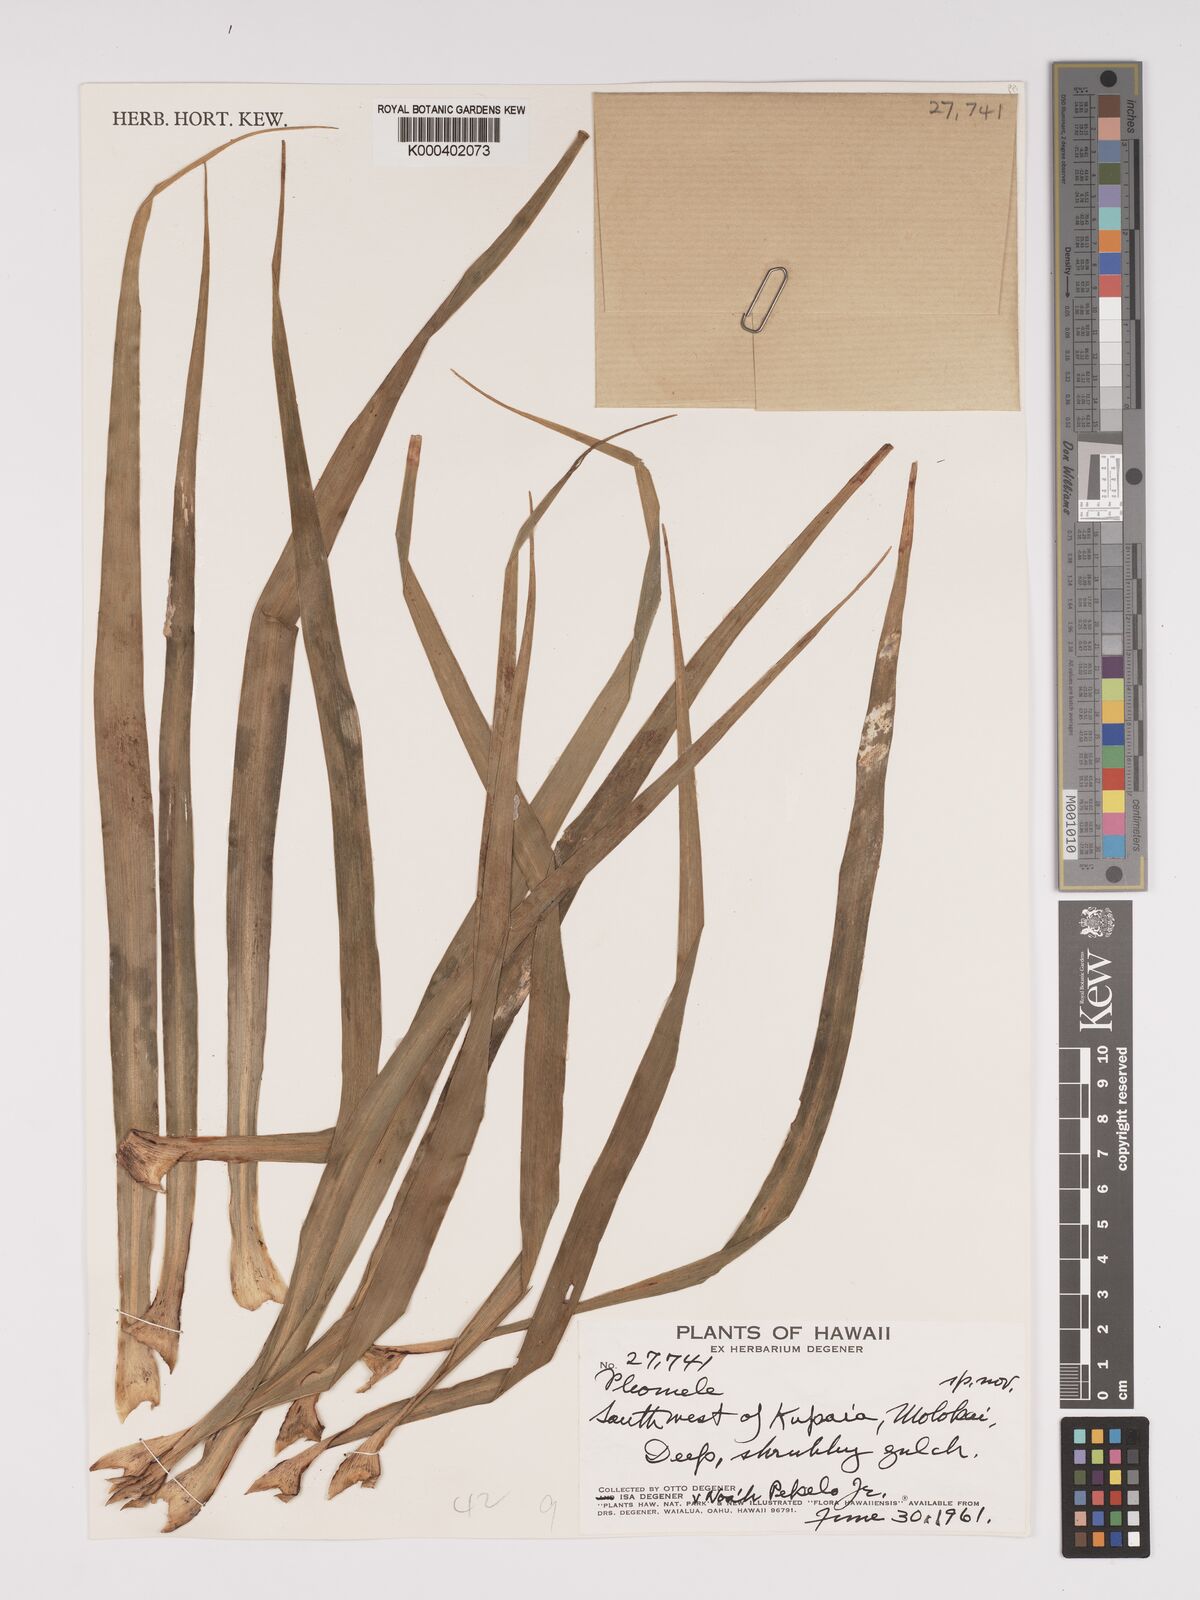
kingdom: Plantae
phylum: Tracheophyta
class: Liliopsida
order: Asparagales
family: Asparagaceae
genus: Dracaena
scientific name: Dracaena
